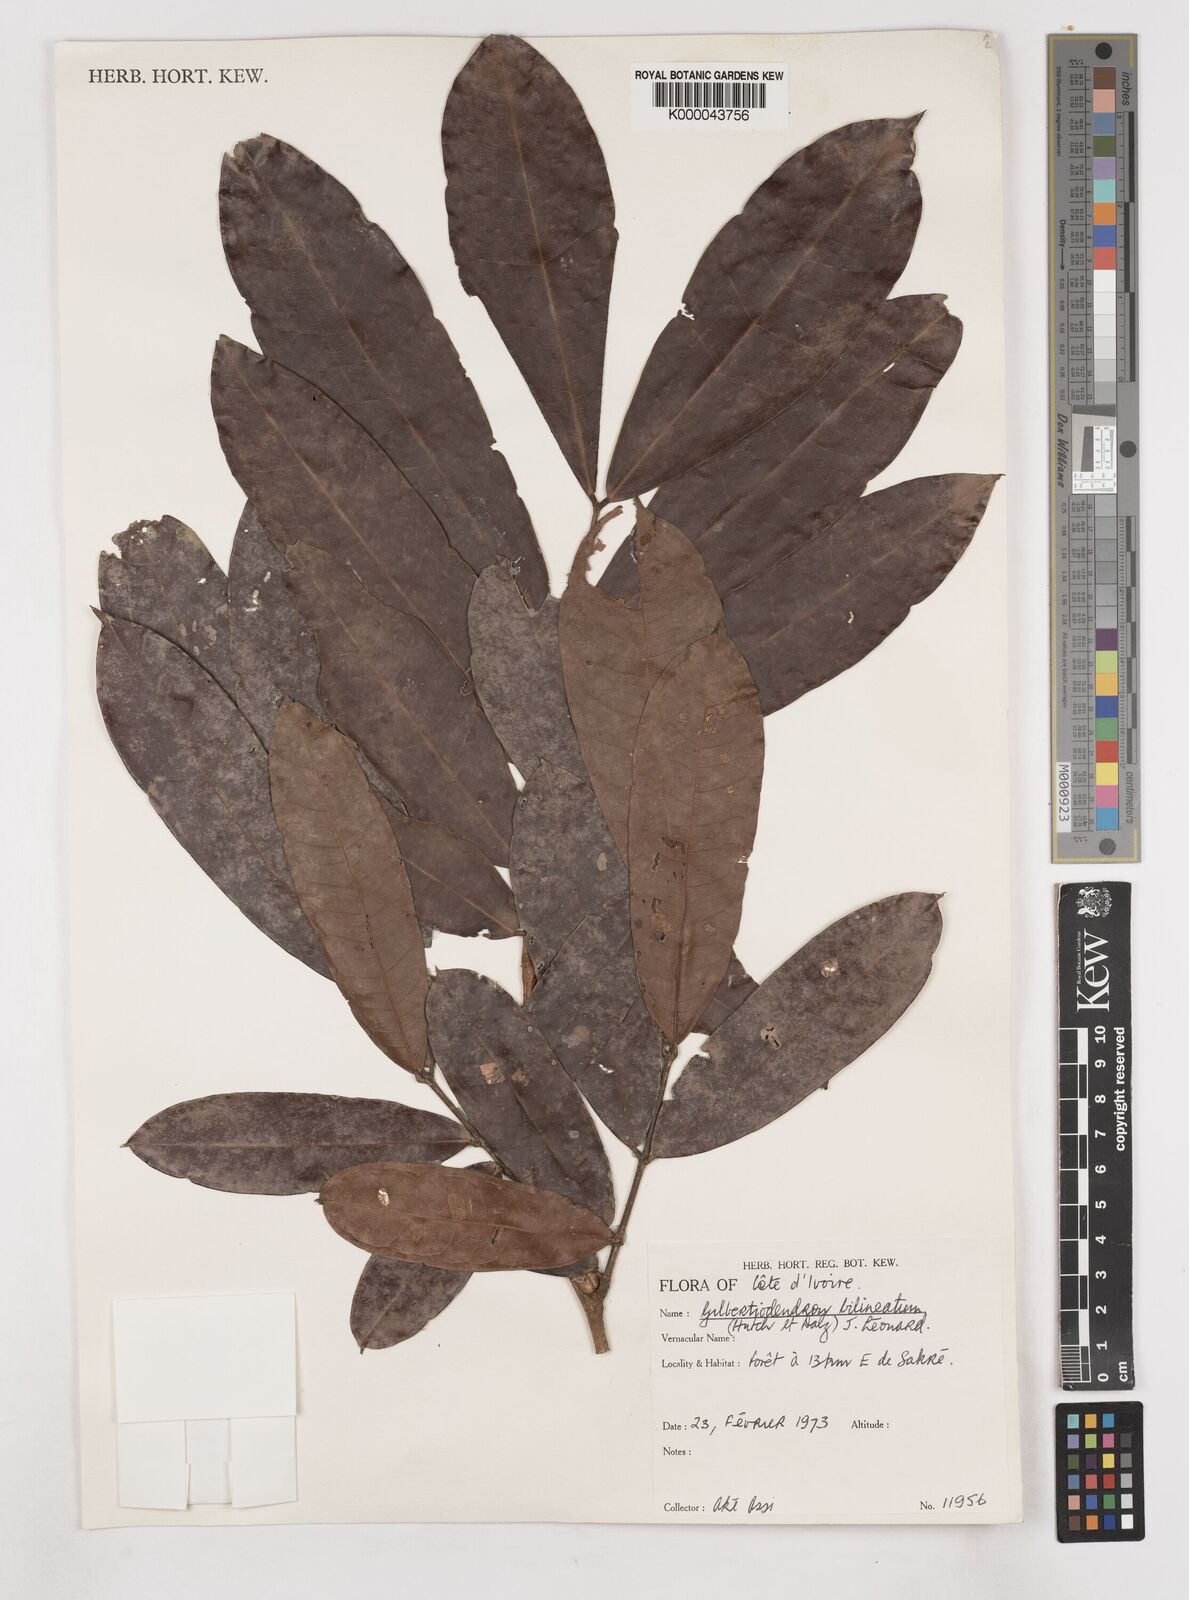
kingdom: Plantae
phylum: Tracheophyta
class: Magnoliopsida
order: Fabales
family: Fabaceae
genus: Gilbertiodendron
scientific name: Gilbertiodendron
